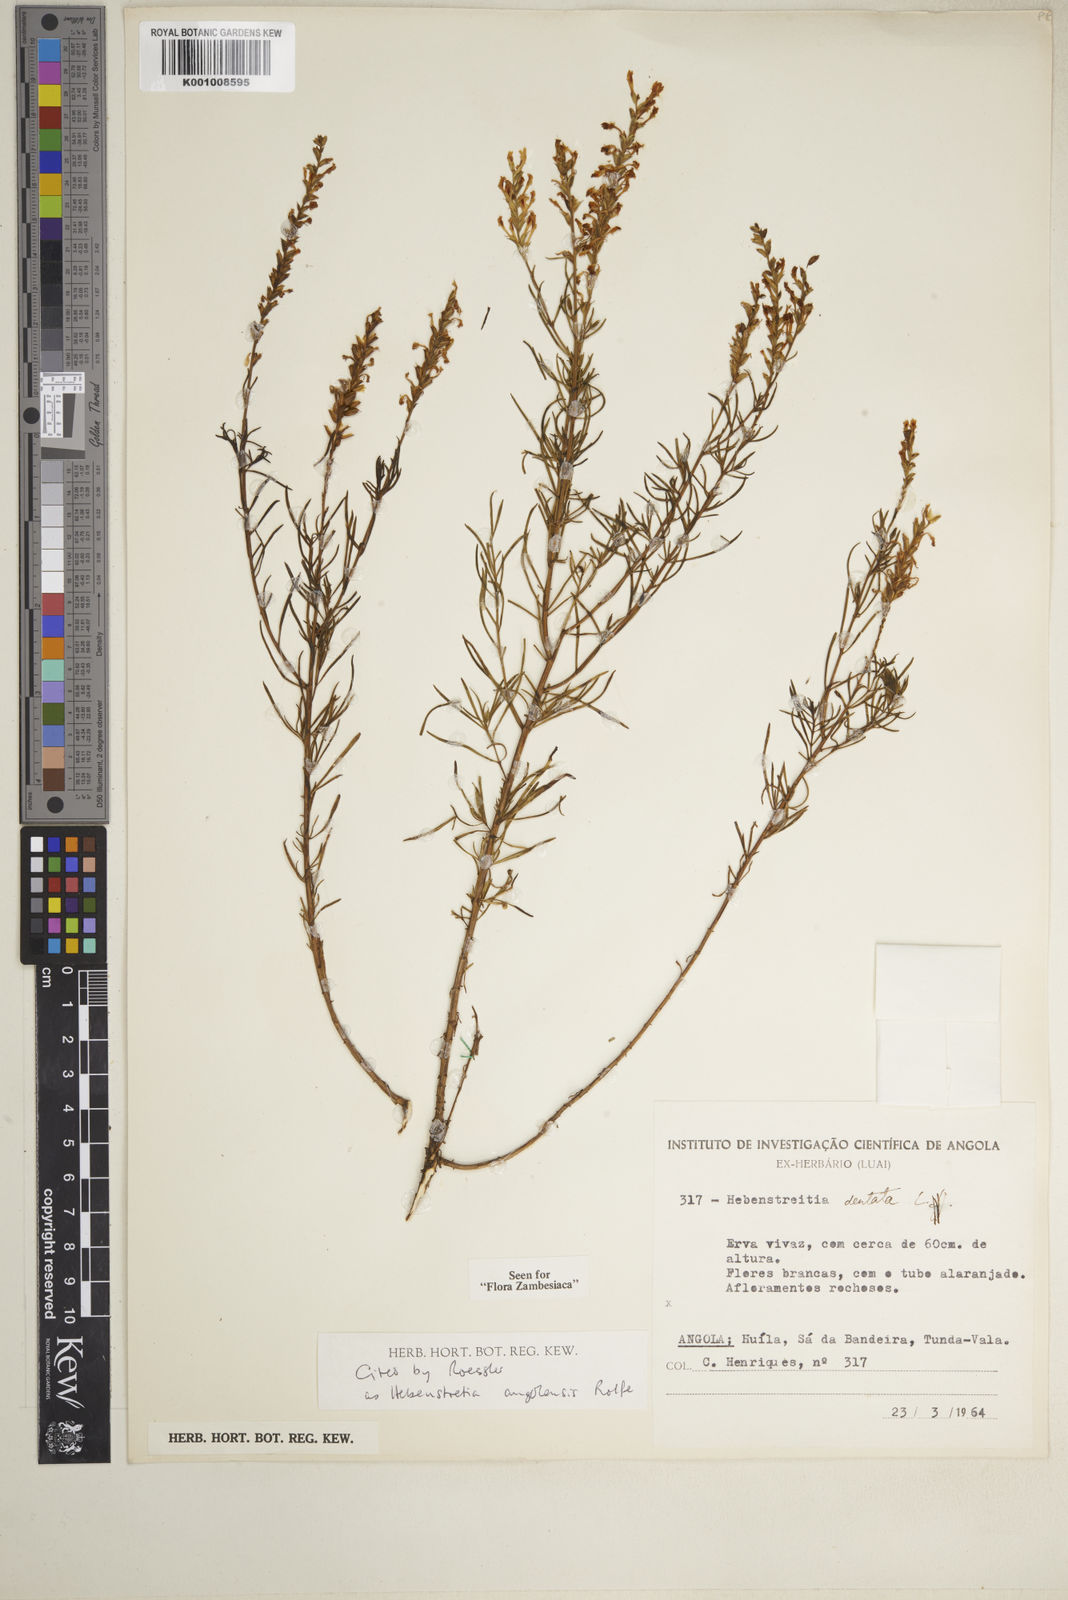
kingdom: Plantae
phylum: Tracheophyta
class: Magnoliopsida
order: Lamiales
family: Scrophulariaceae
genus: Hebenstretia
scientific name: Hebenstretia angolensis
